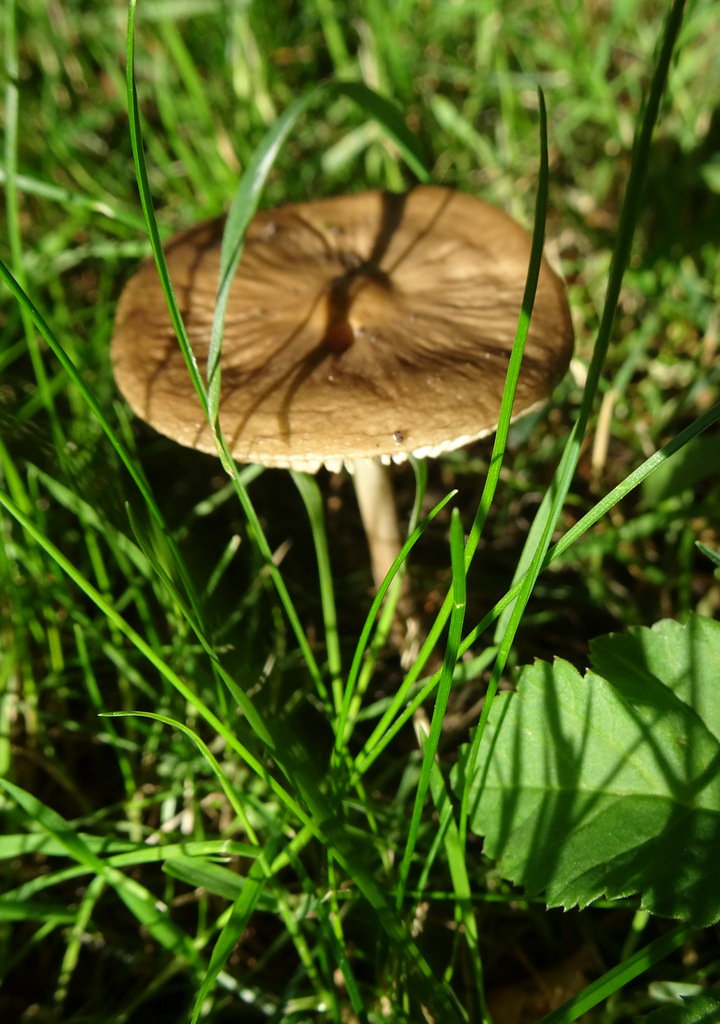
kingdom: Fungi
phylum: Basidiomycota
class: Agaricomycetes
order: Agaricales
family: Physalacriaceae
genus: Hymenopellis
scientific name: Hymenopellis radicata
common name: almindelig pælerodshat
